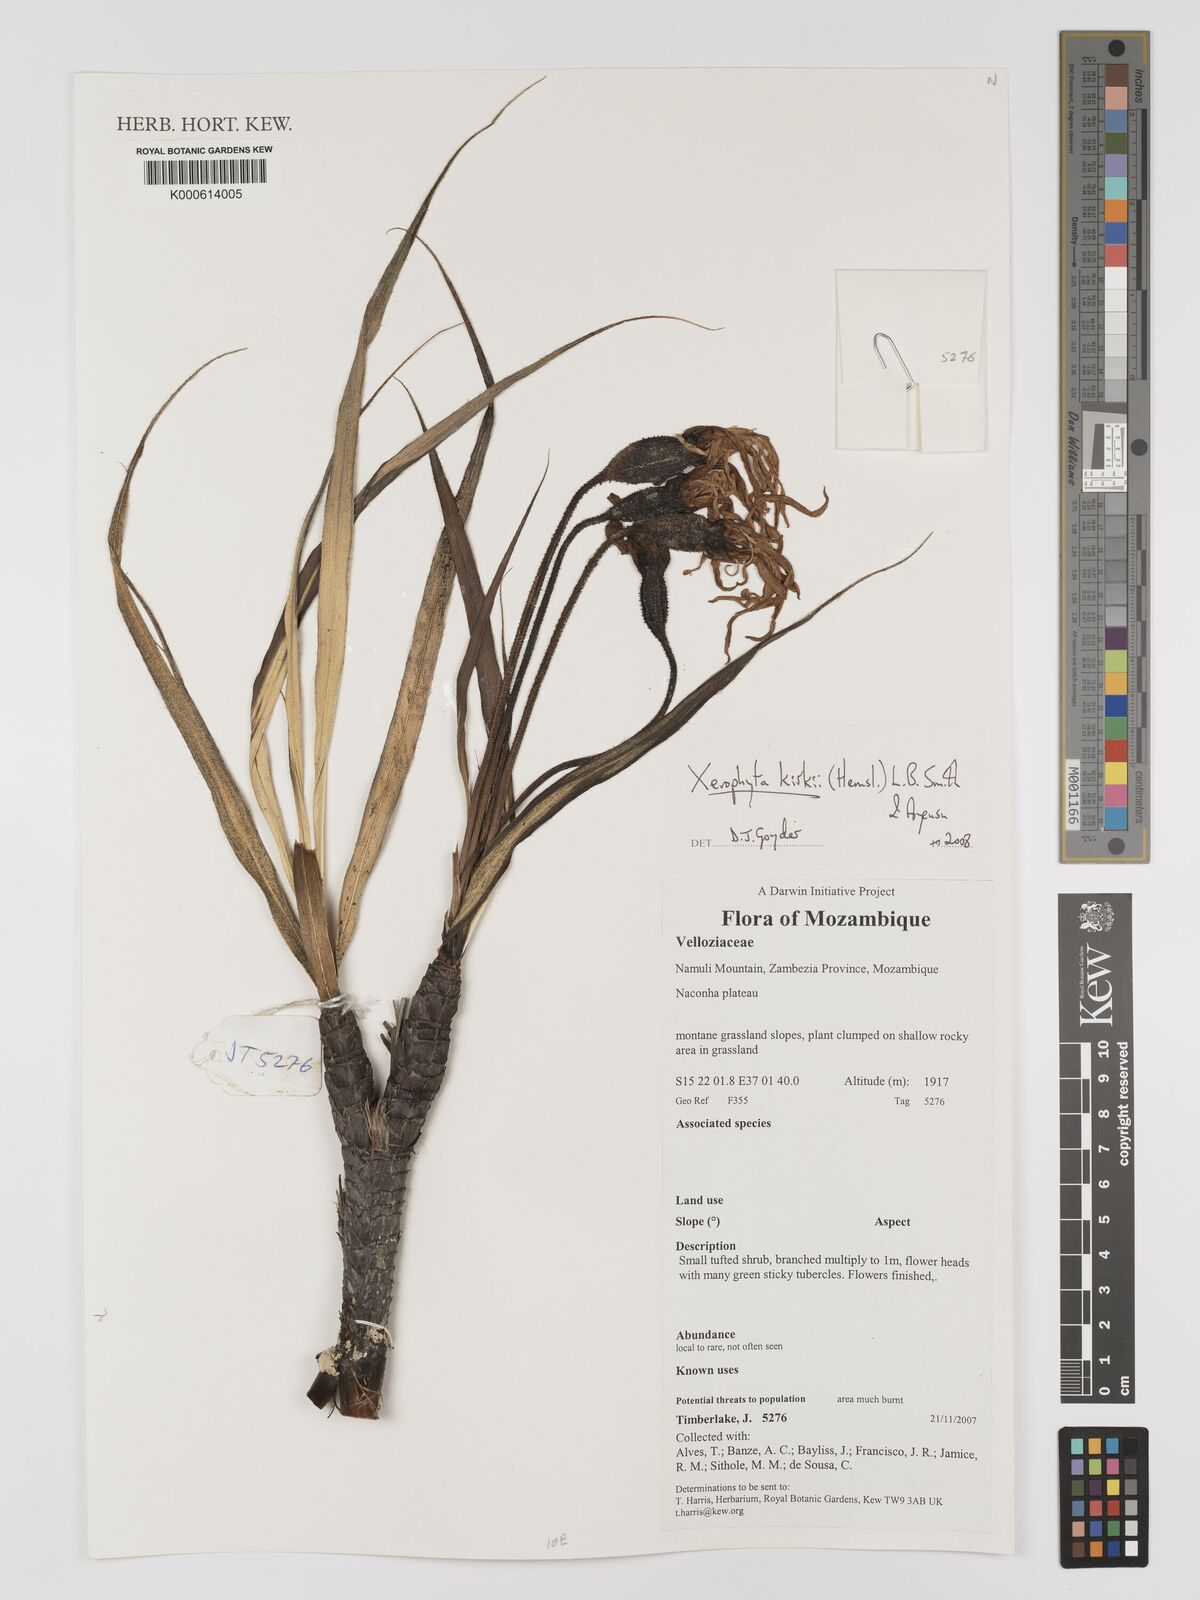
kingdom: Plantae
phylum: Tracheophyta
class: Liliopsida
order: Pandanales
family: Velloziaceae
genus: Xerophyta
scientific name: Xerophyta
